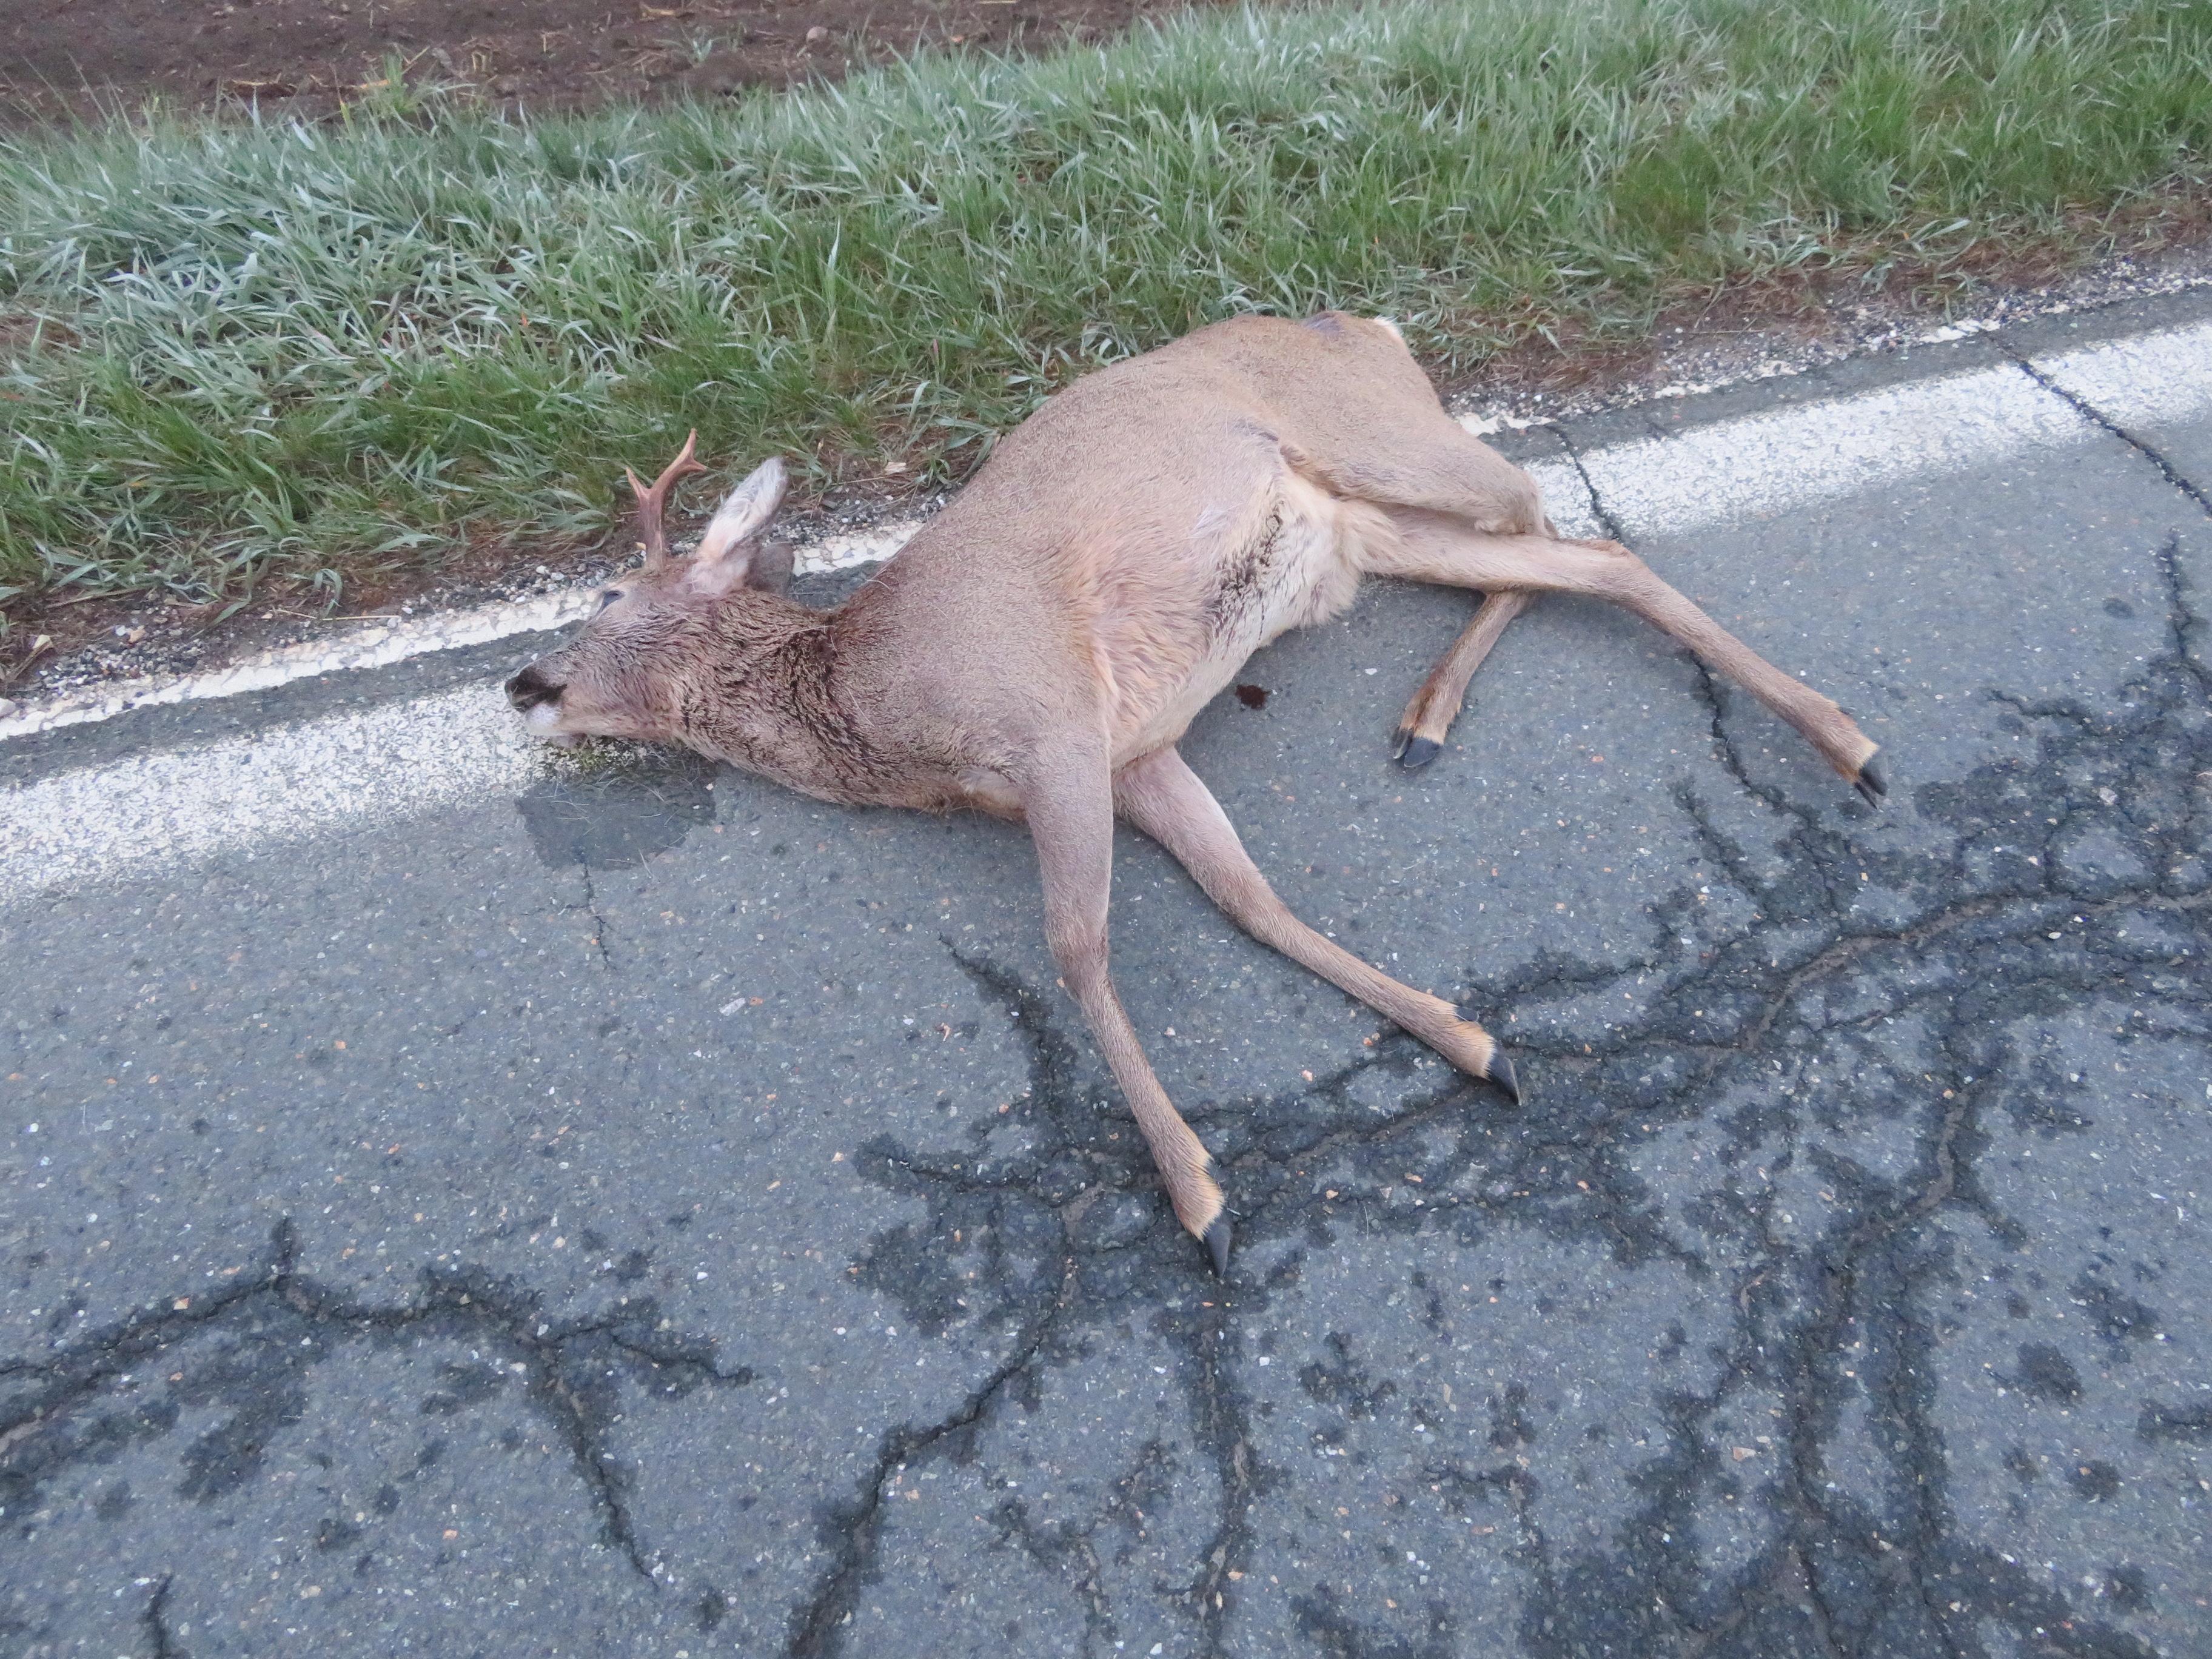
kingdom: Animalia
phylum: Chordata
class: Mammalia
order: Artiodactyla
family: Cervidae
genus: Capreolus
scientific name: Capreolus capreolus
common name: Western roe deer
